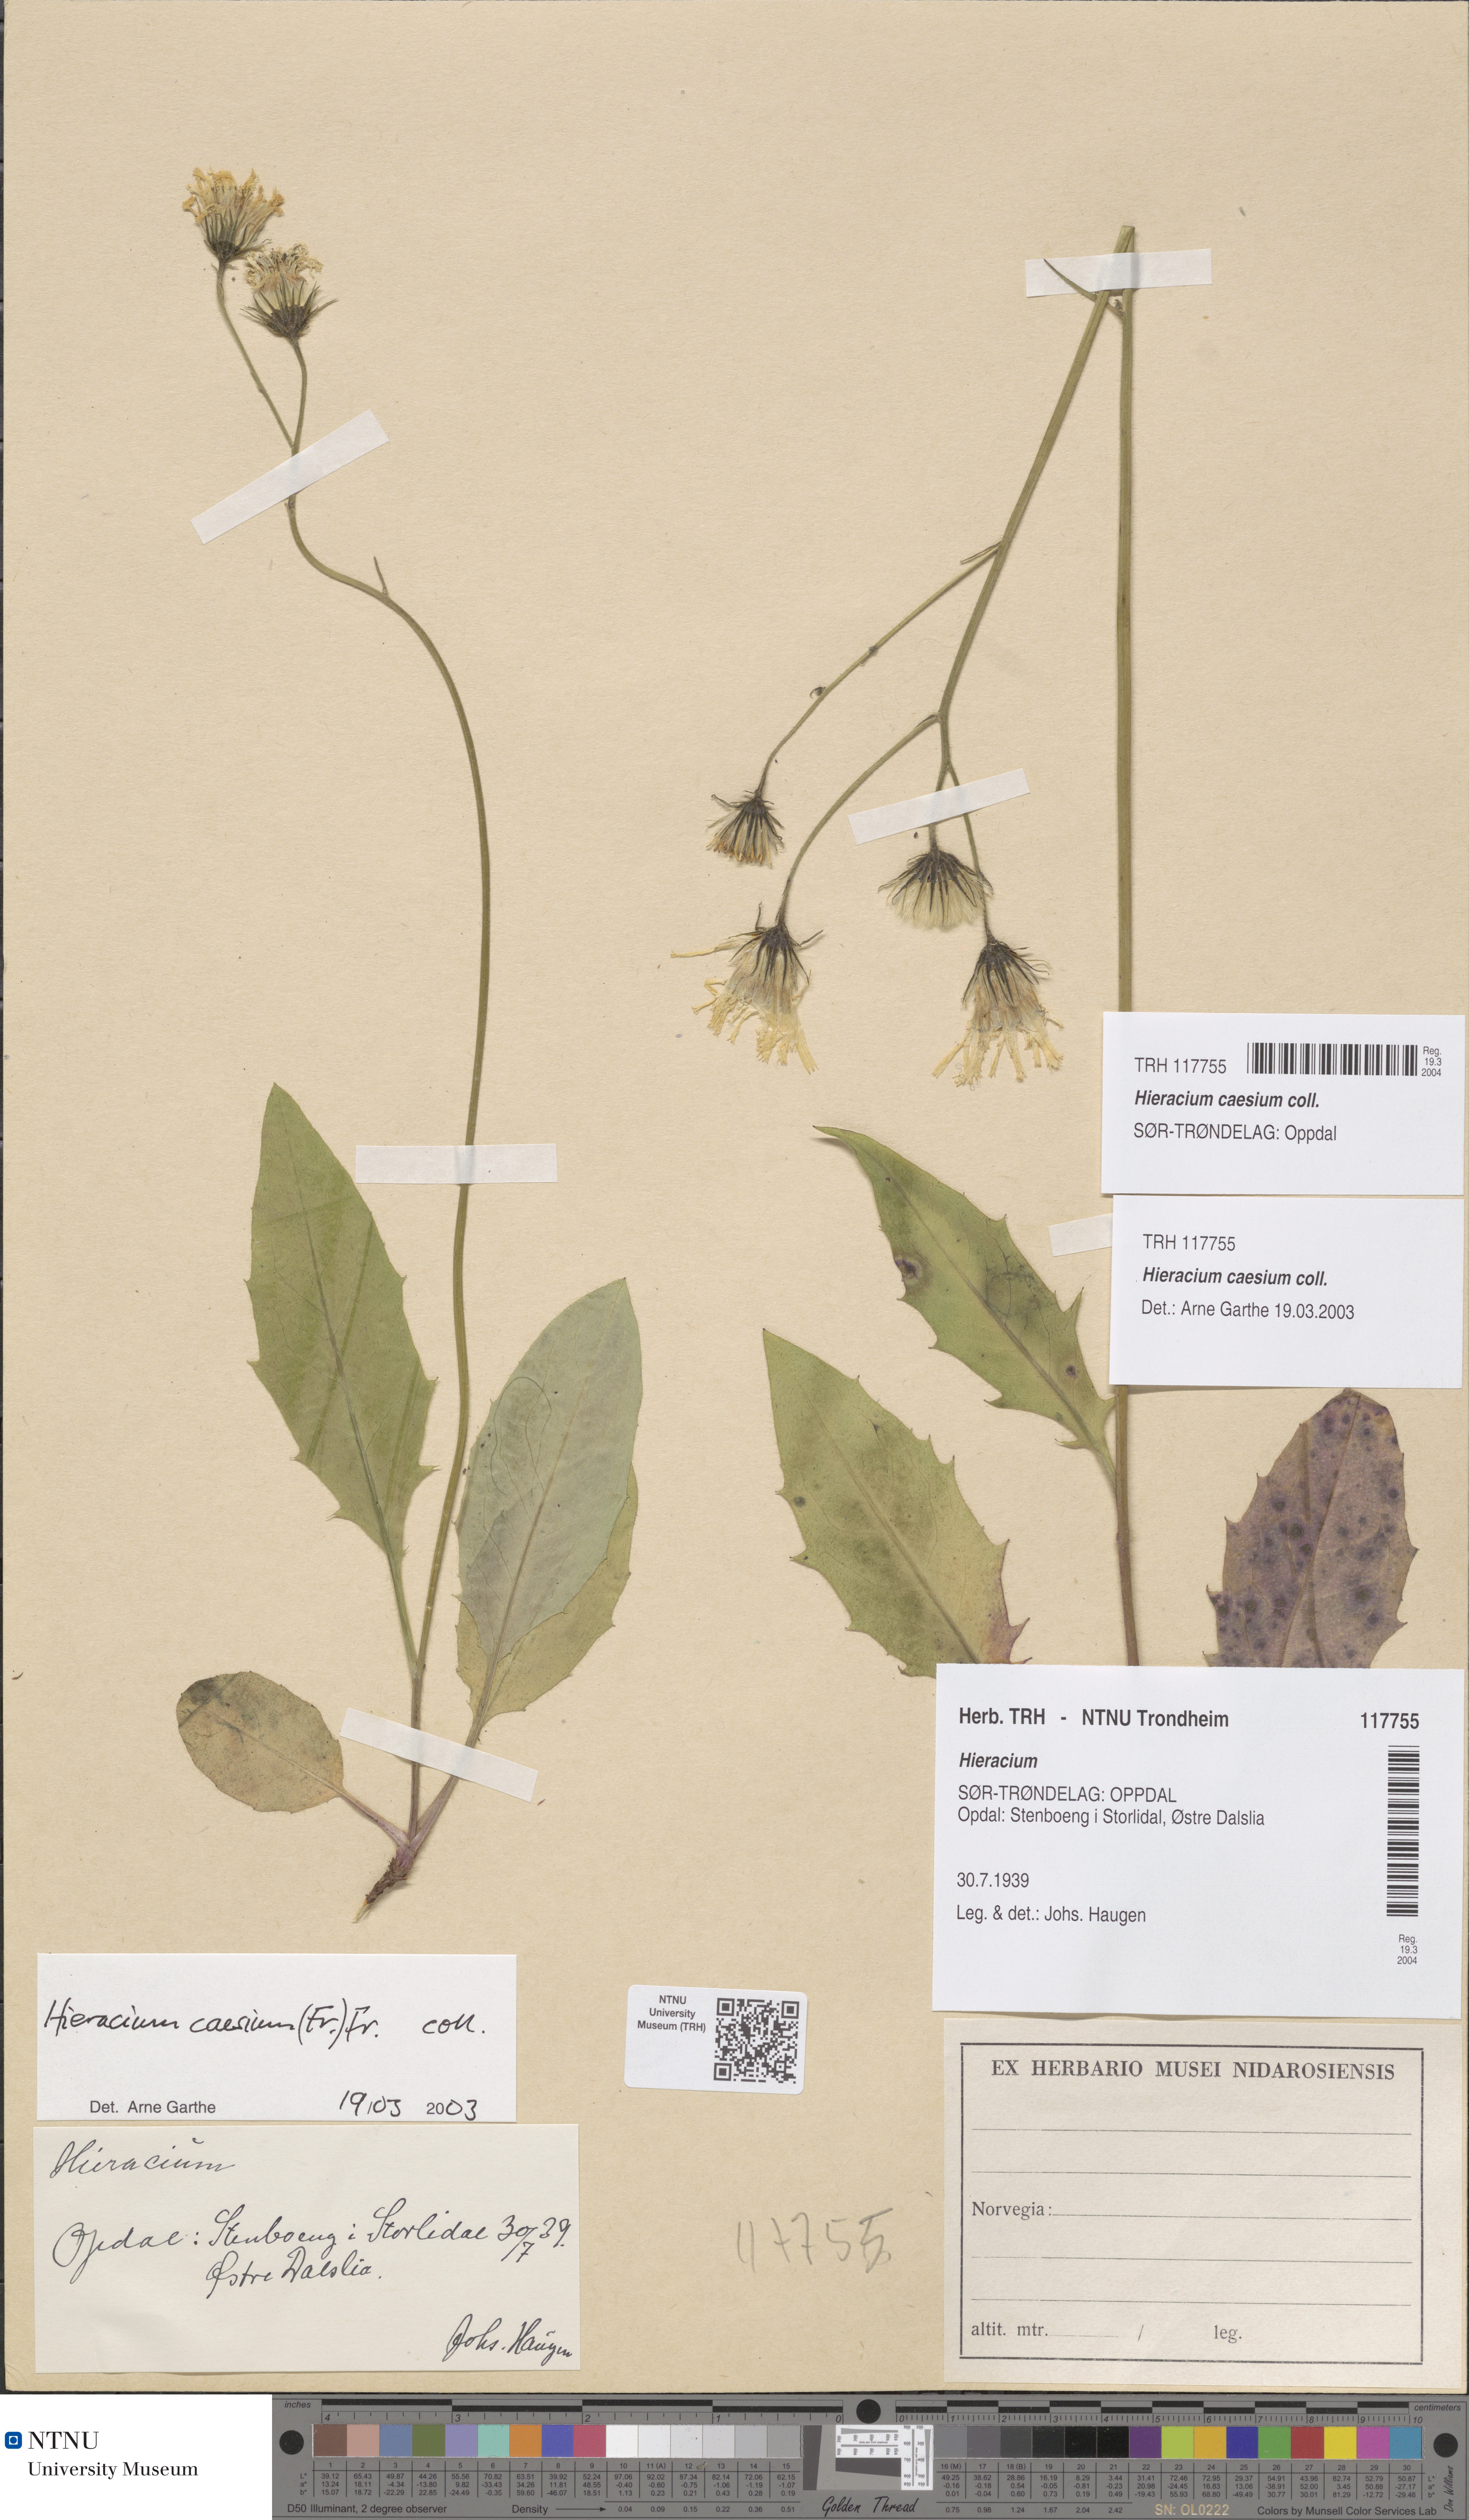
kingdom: Plantae
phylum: Tracheophyta
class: Magnoliopsida
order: Asterales
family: Asteraceae
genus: Hieracium
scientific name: Hieracium caesium
